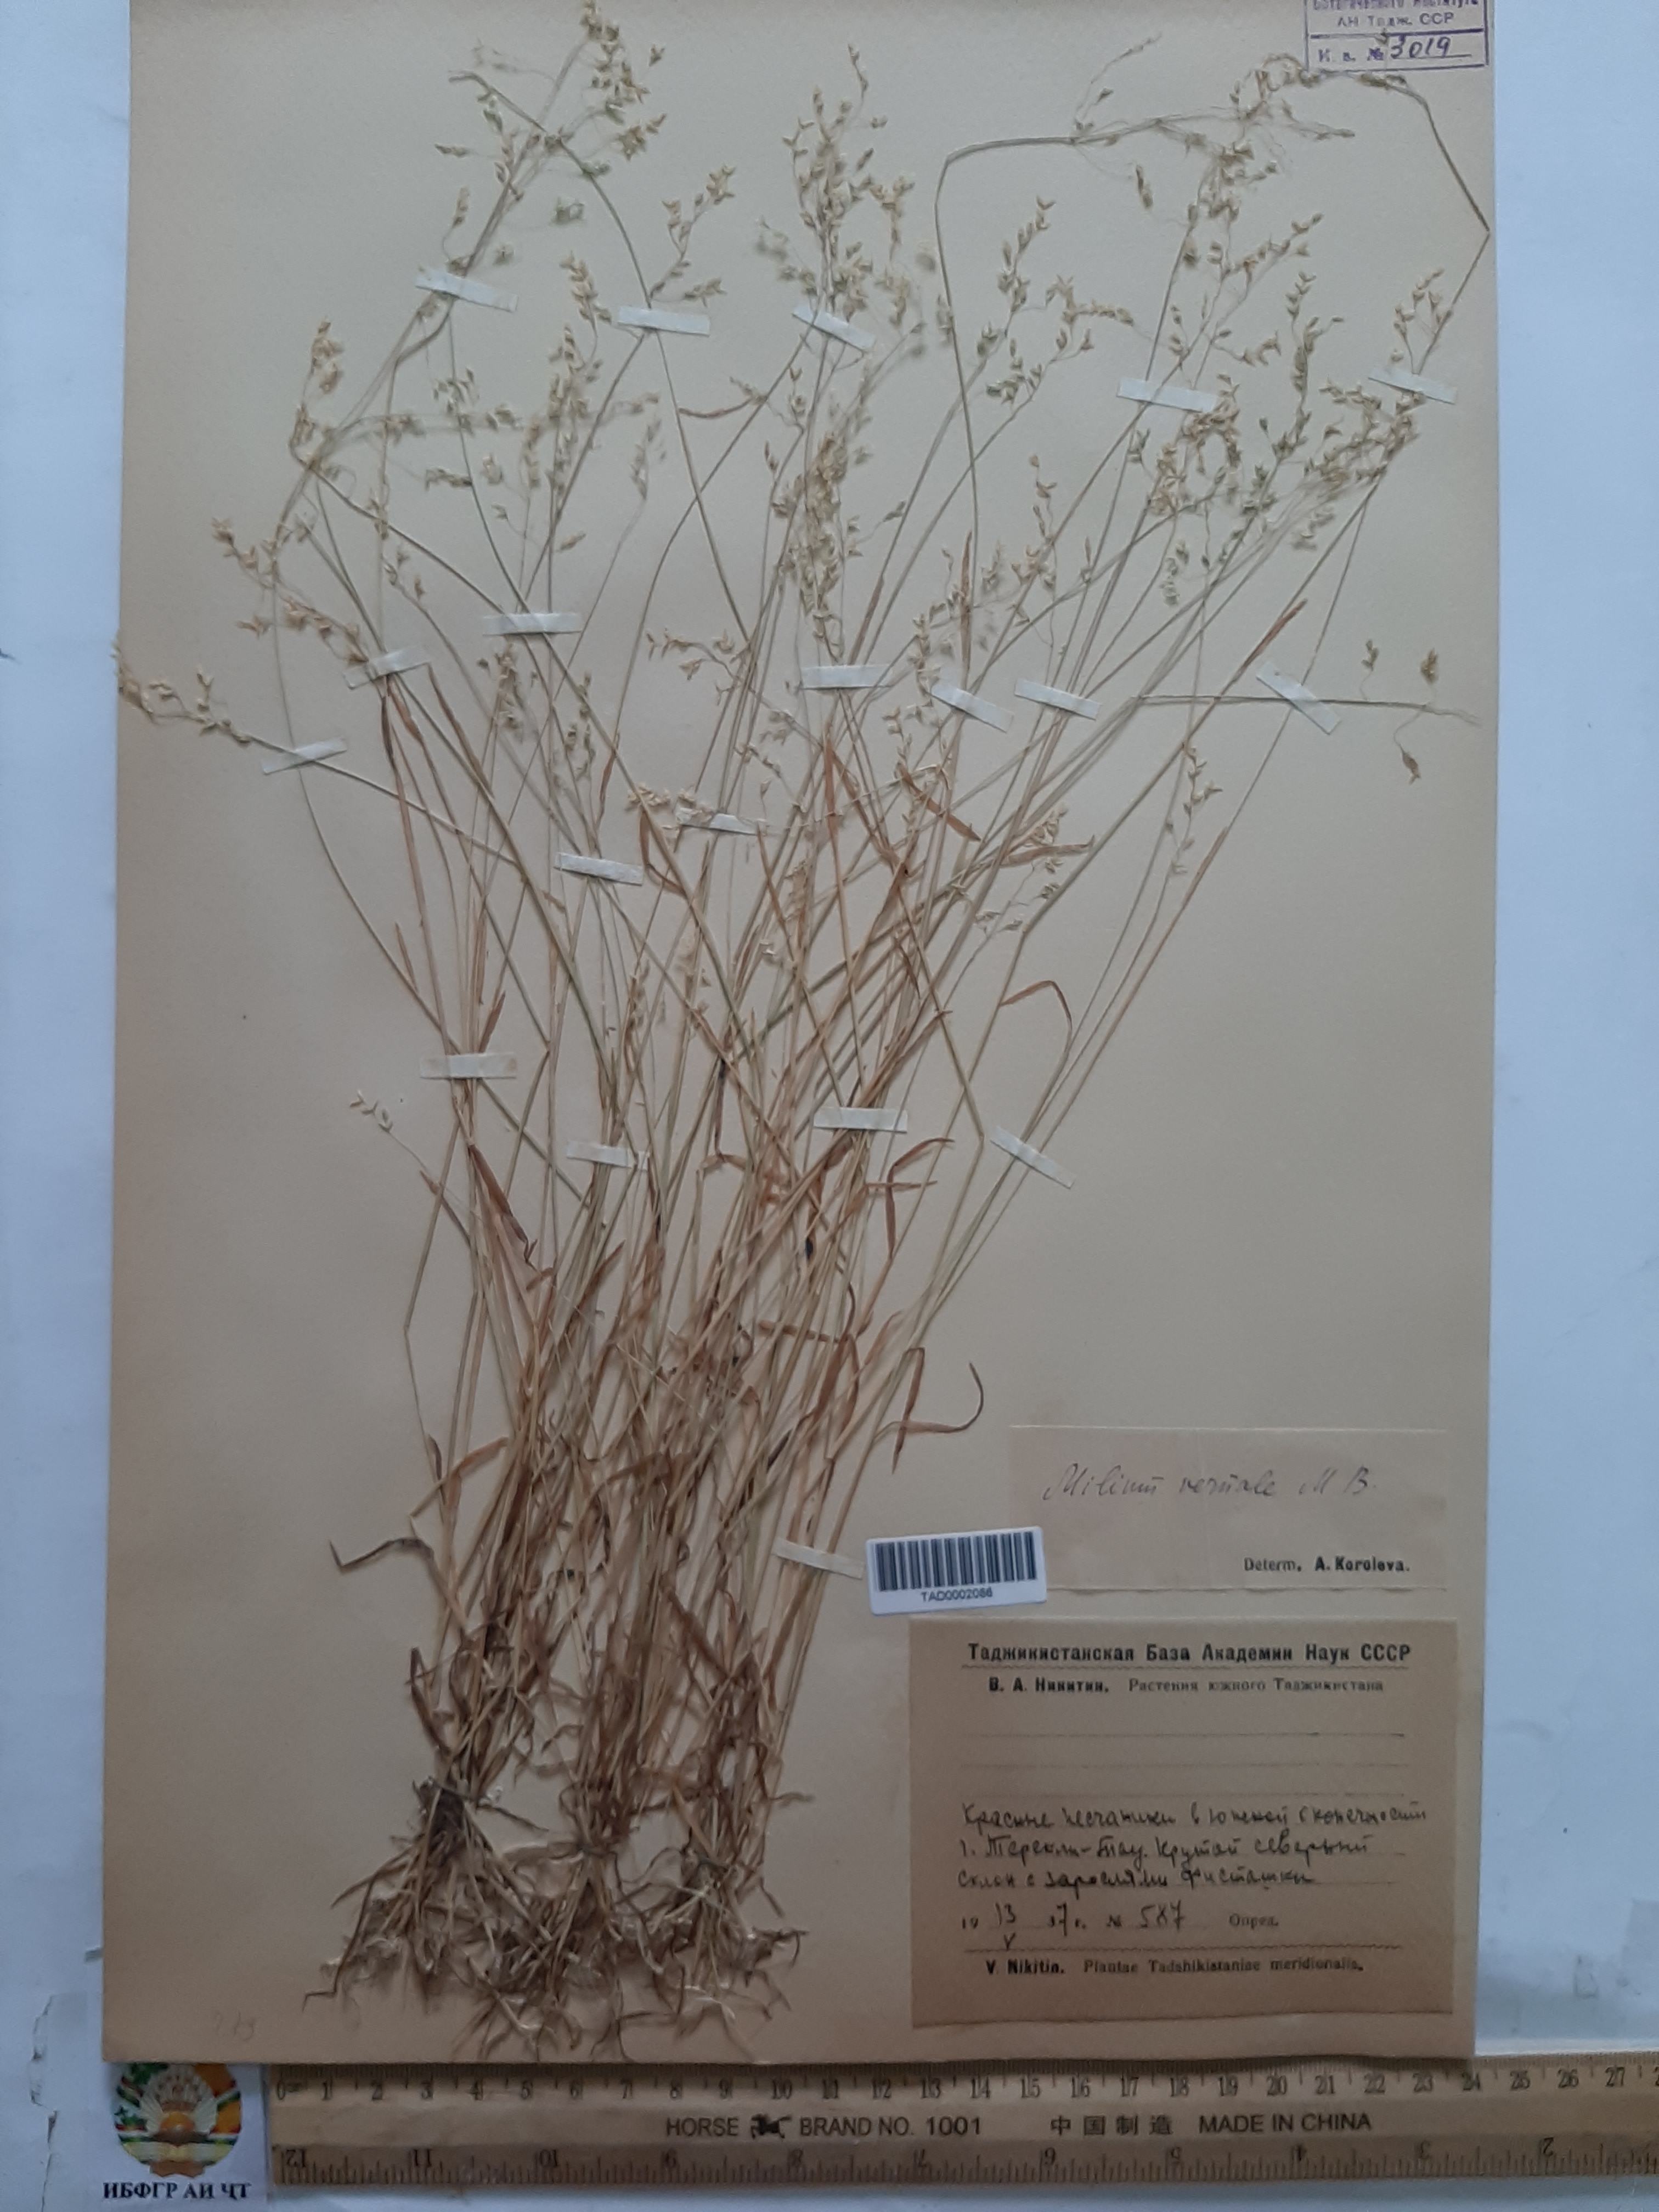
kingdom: Plantae
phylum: Tracheophyta
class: Liliopsida
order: Poales
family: Poaceae
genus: Milium
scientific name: Milium vernale
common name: Early millet
